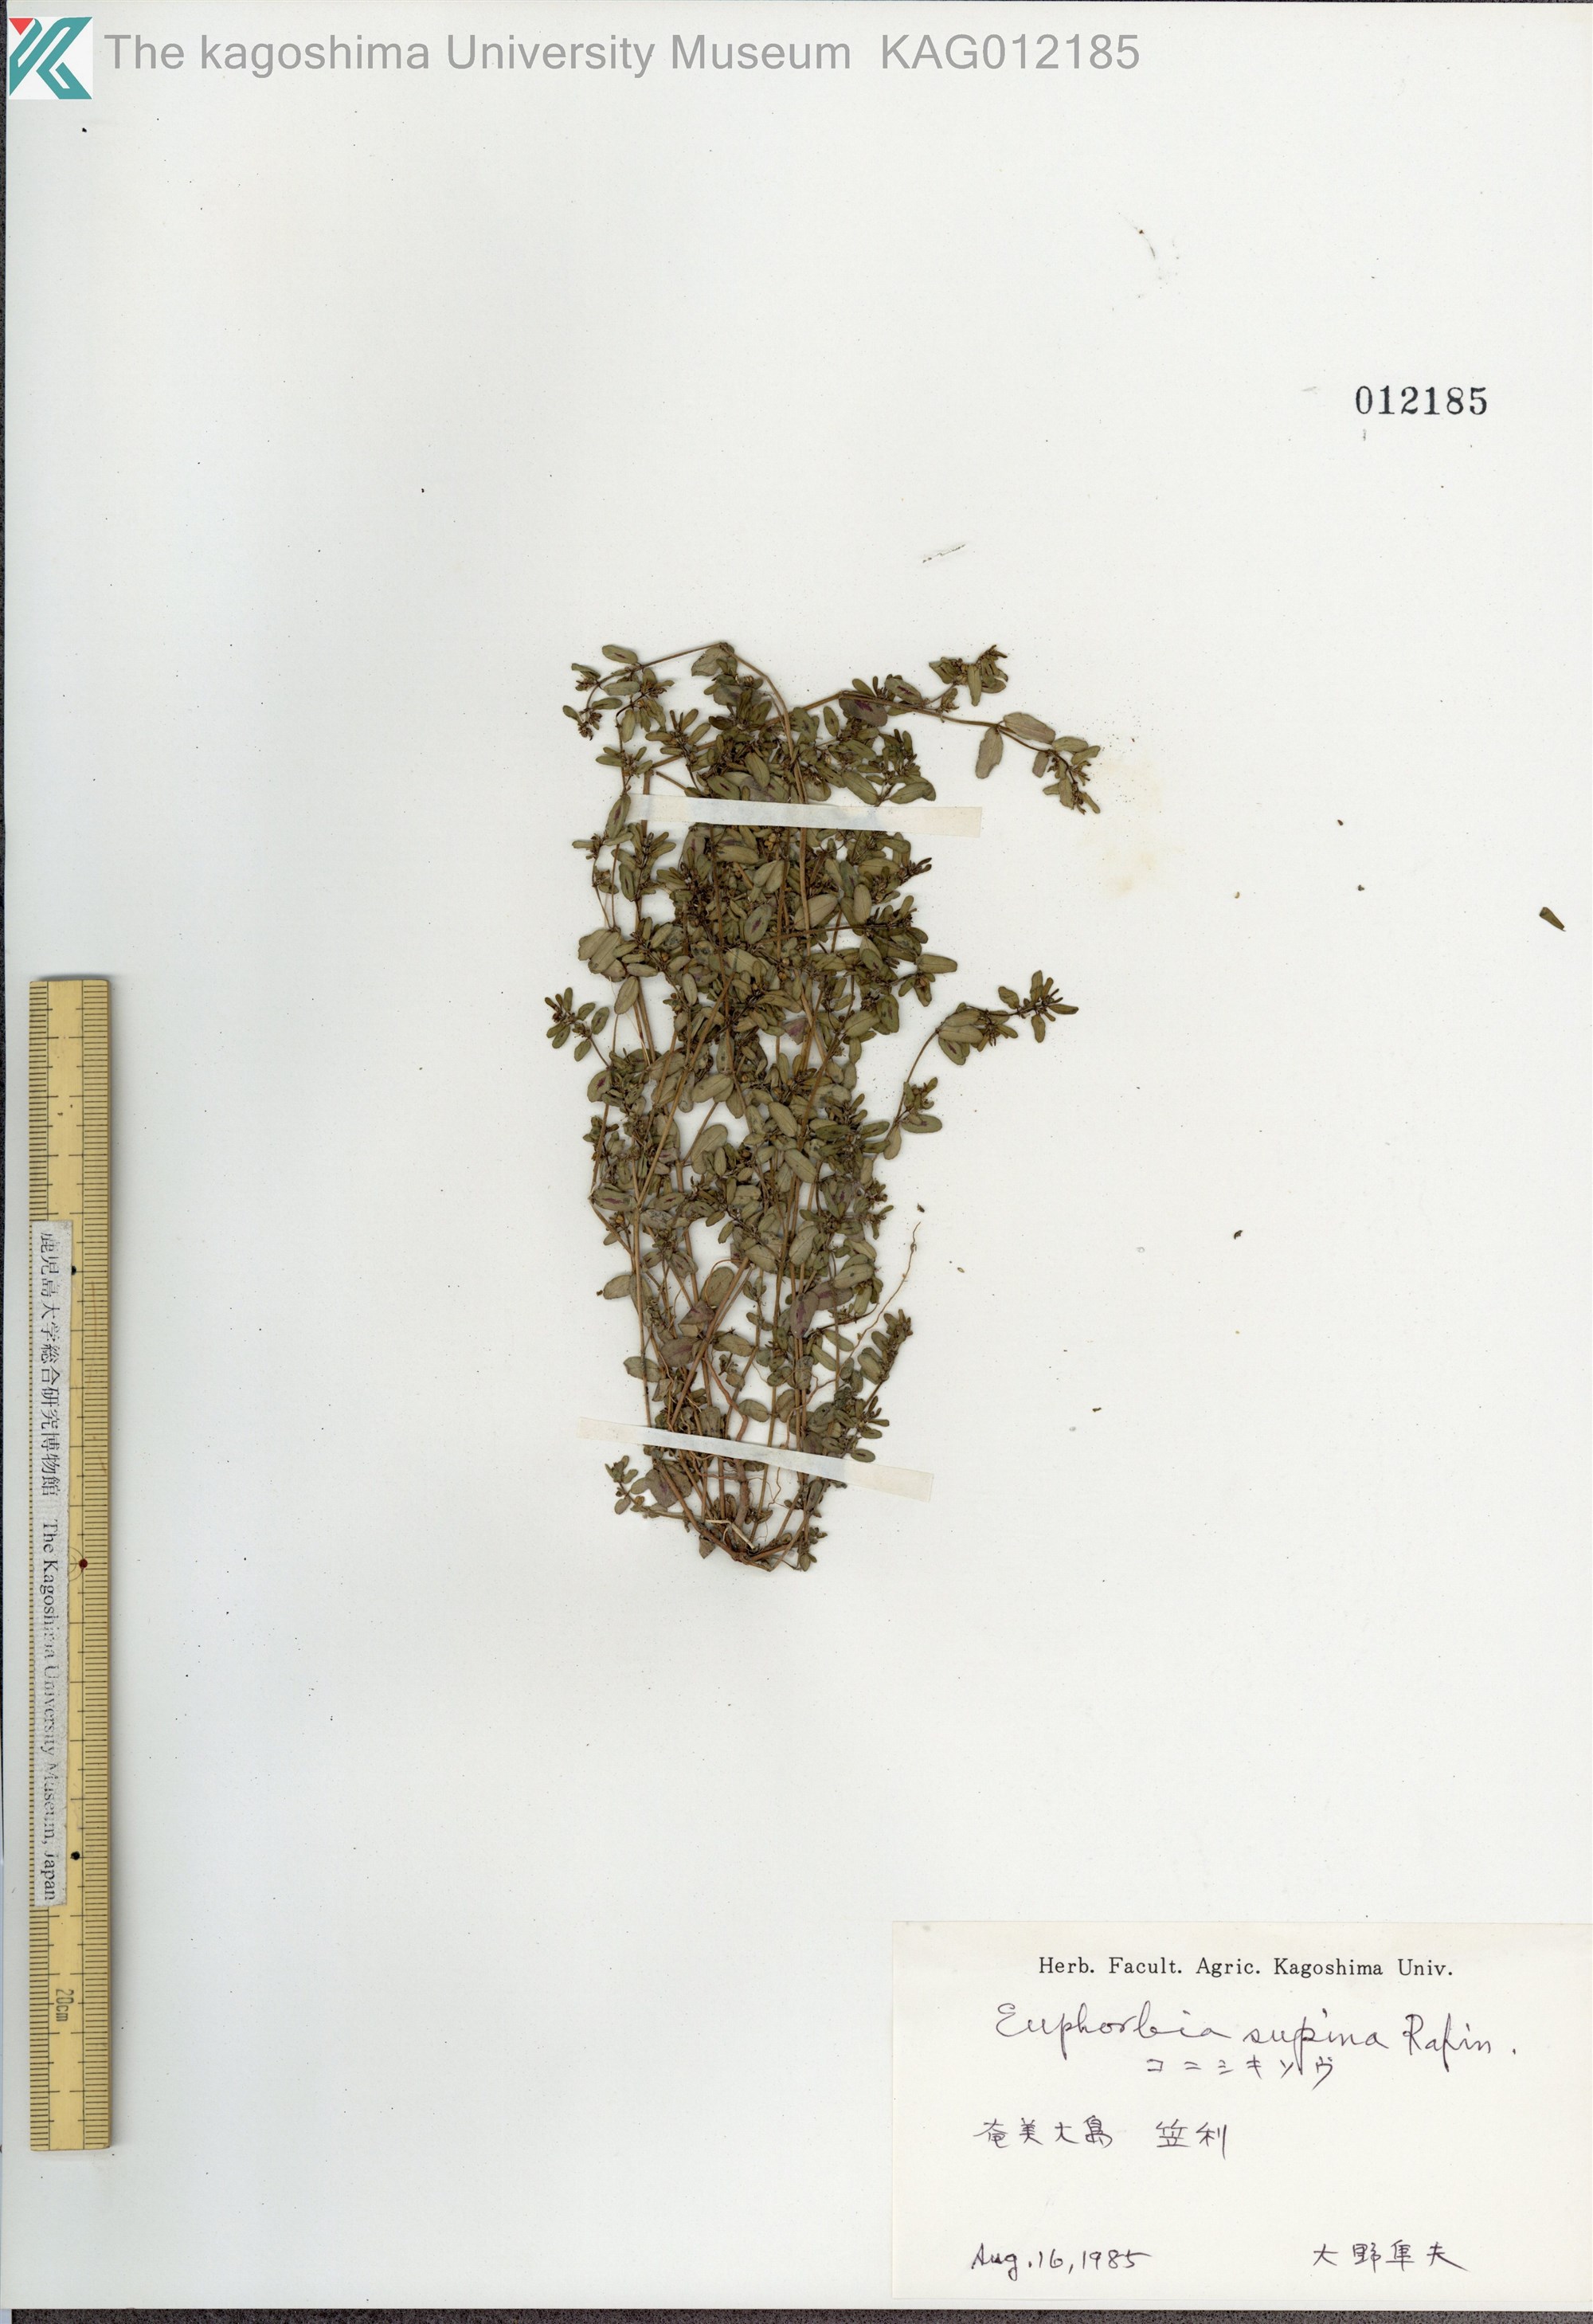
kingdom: Plantae
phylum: Tracheophyta
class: Magnoliopsida
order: Malpighiales
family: Euphorbiaceae
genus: Euphorbia
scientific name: Euphorbia maculata
